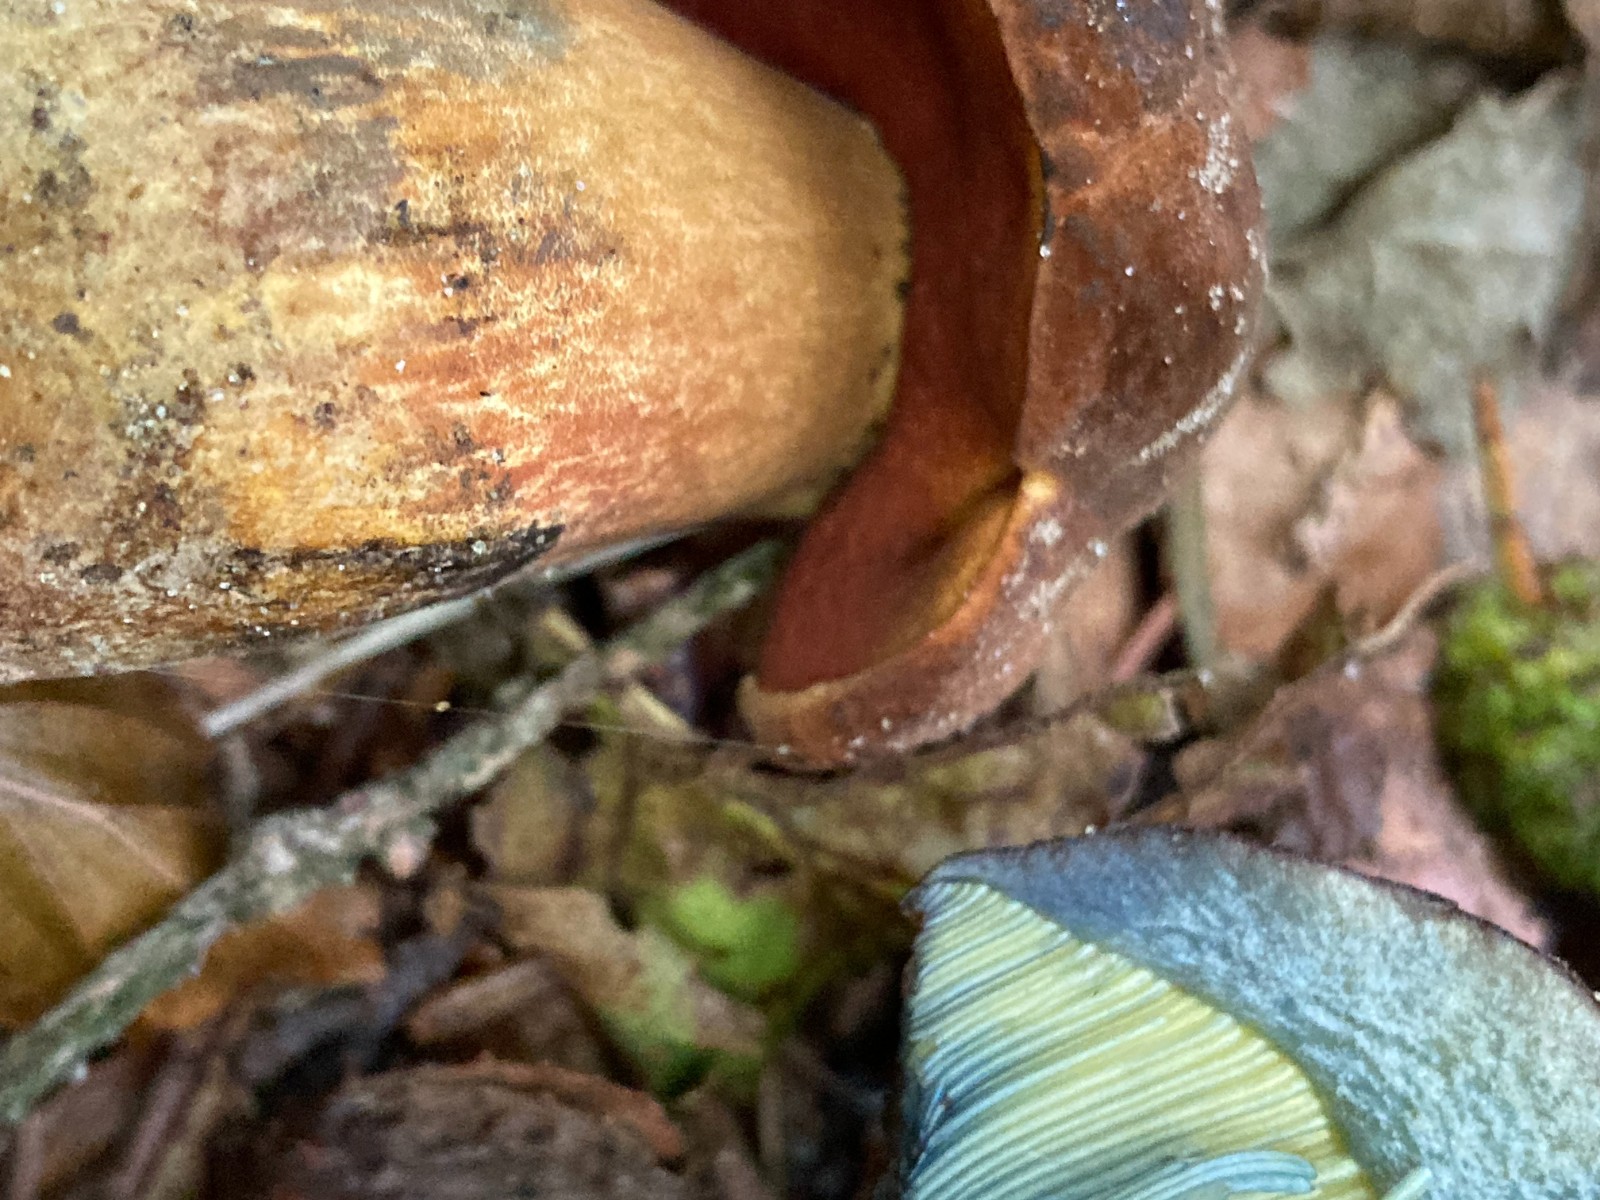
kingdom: Fungi
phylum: Basidiomycota
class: Agaricomycetes
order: Boletales
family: Boletaceae
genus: Neoboletus
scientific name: Neoboletus erythropus
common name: punktstokket indigorørhat
